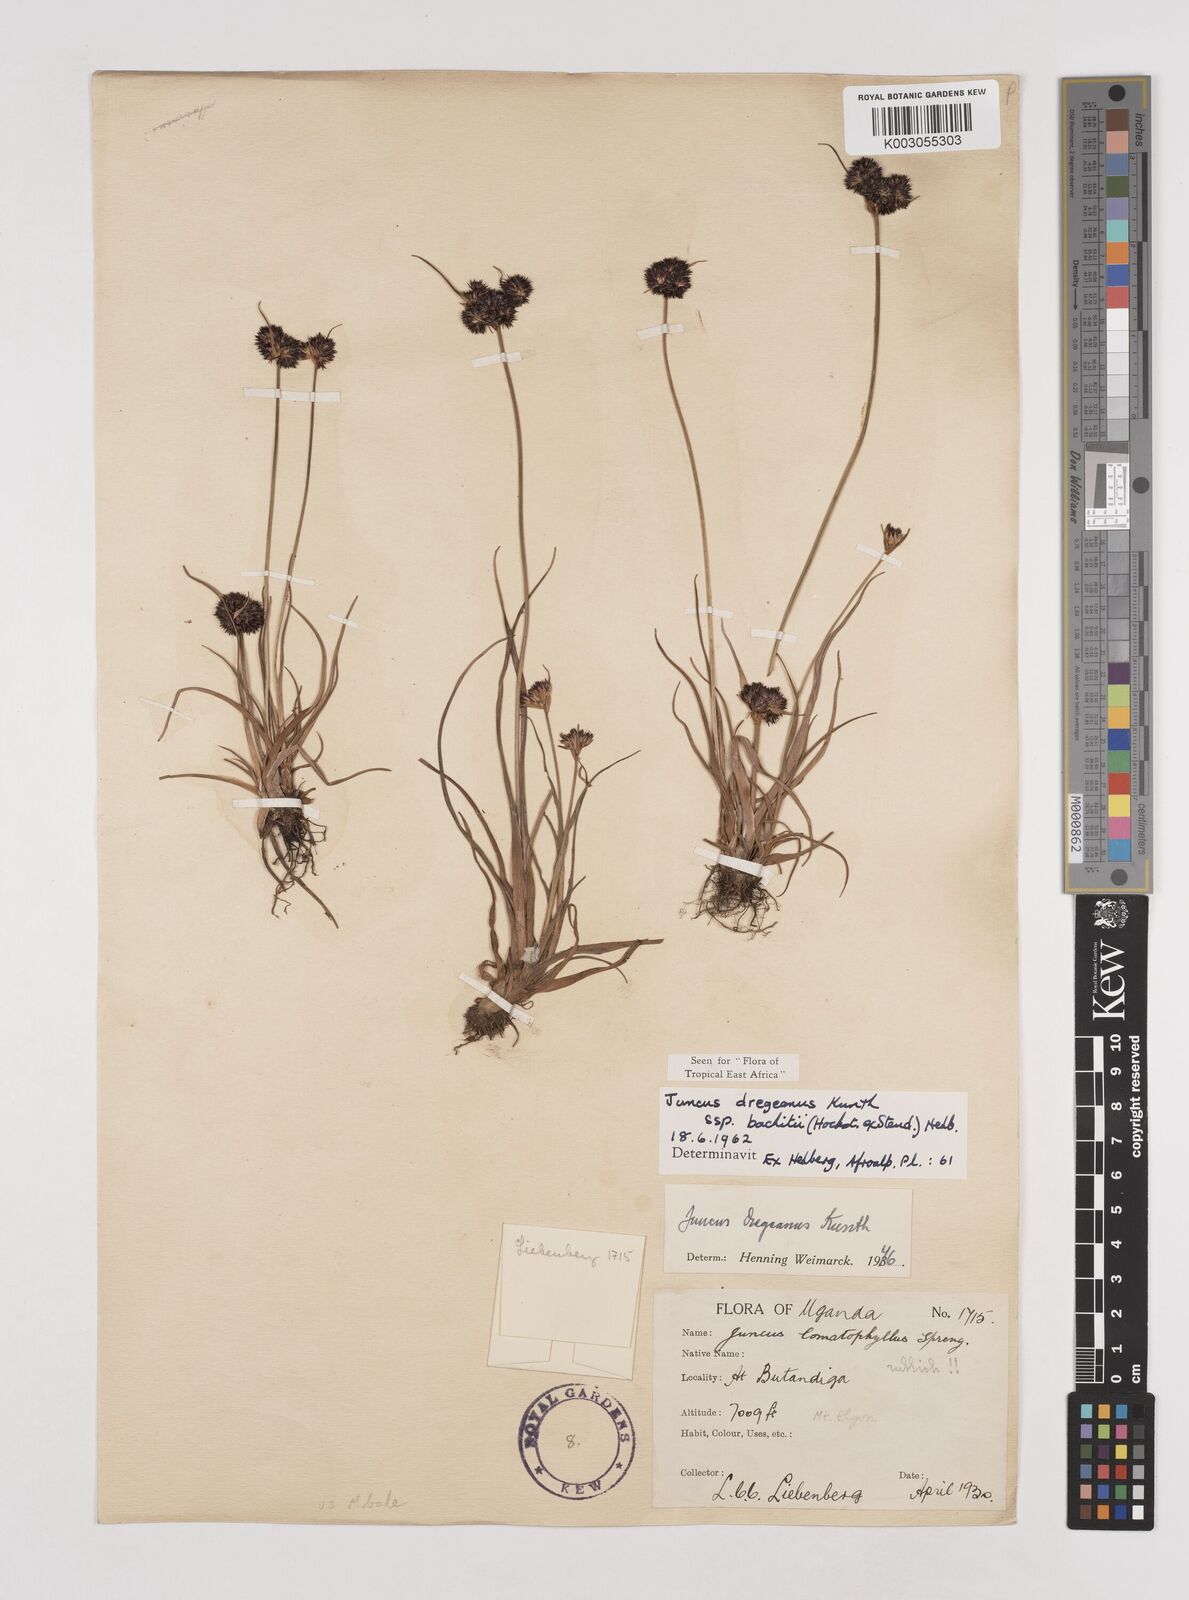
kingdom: Plantae
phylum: Tracheophyta
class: Liliopsida
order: Poales
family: Juncaceae
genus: Juncus
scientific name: Juncus dregeanus
